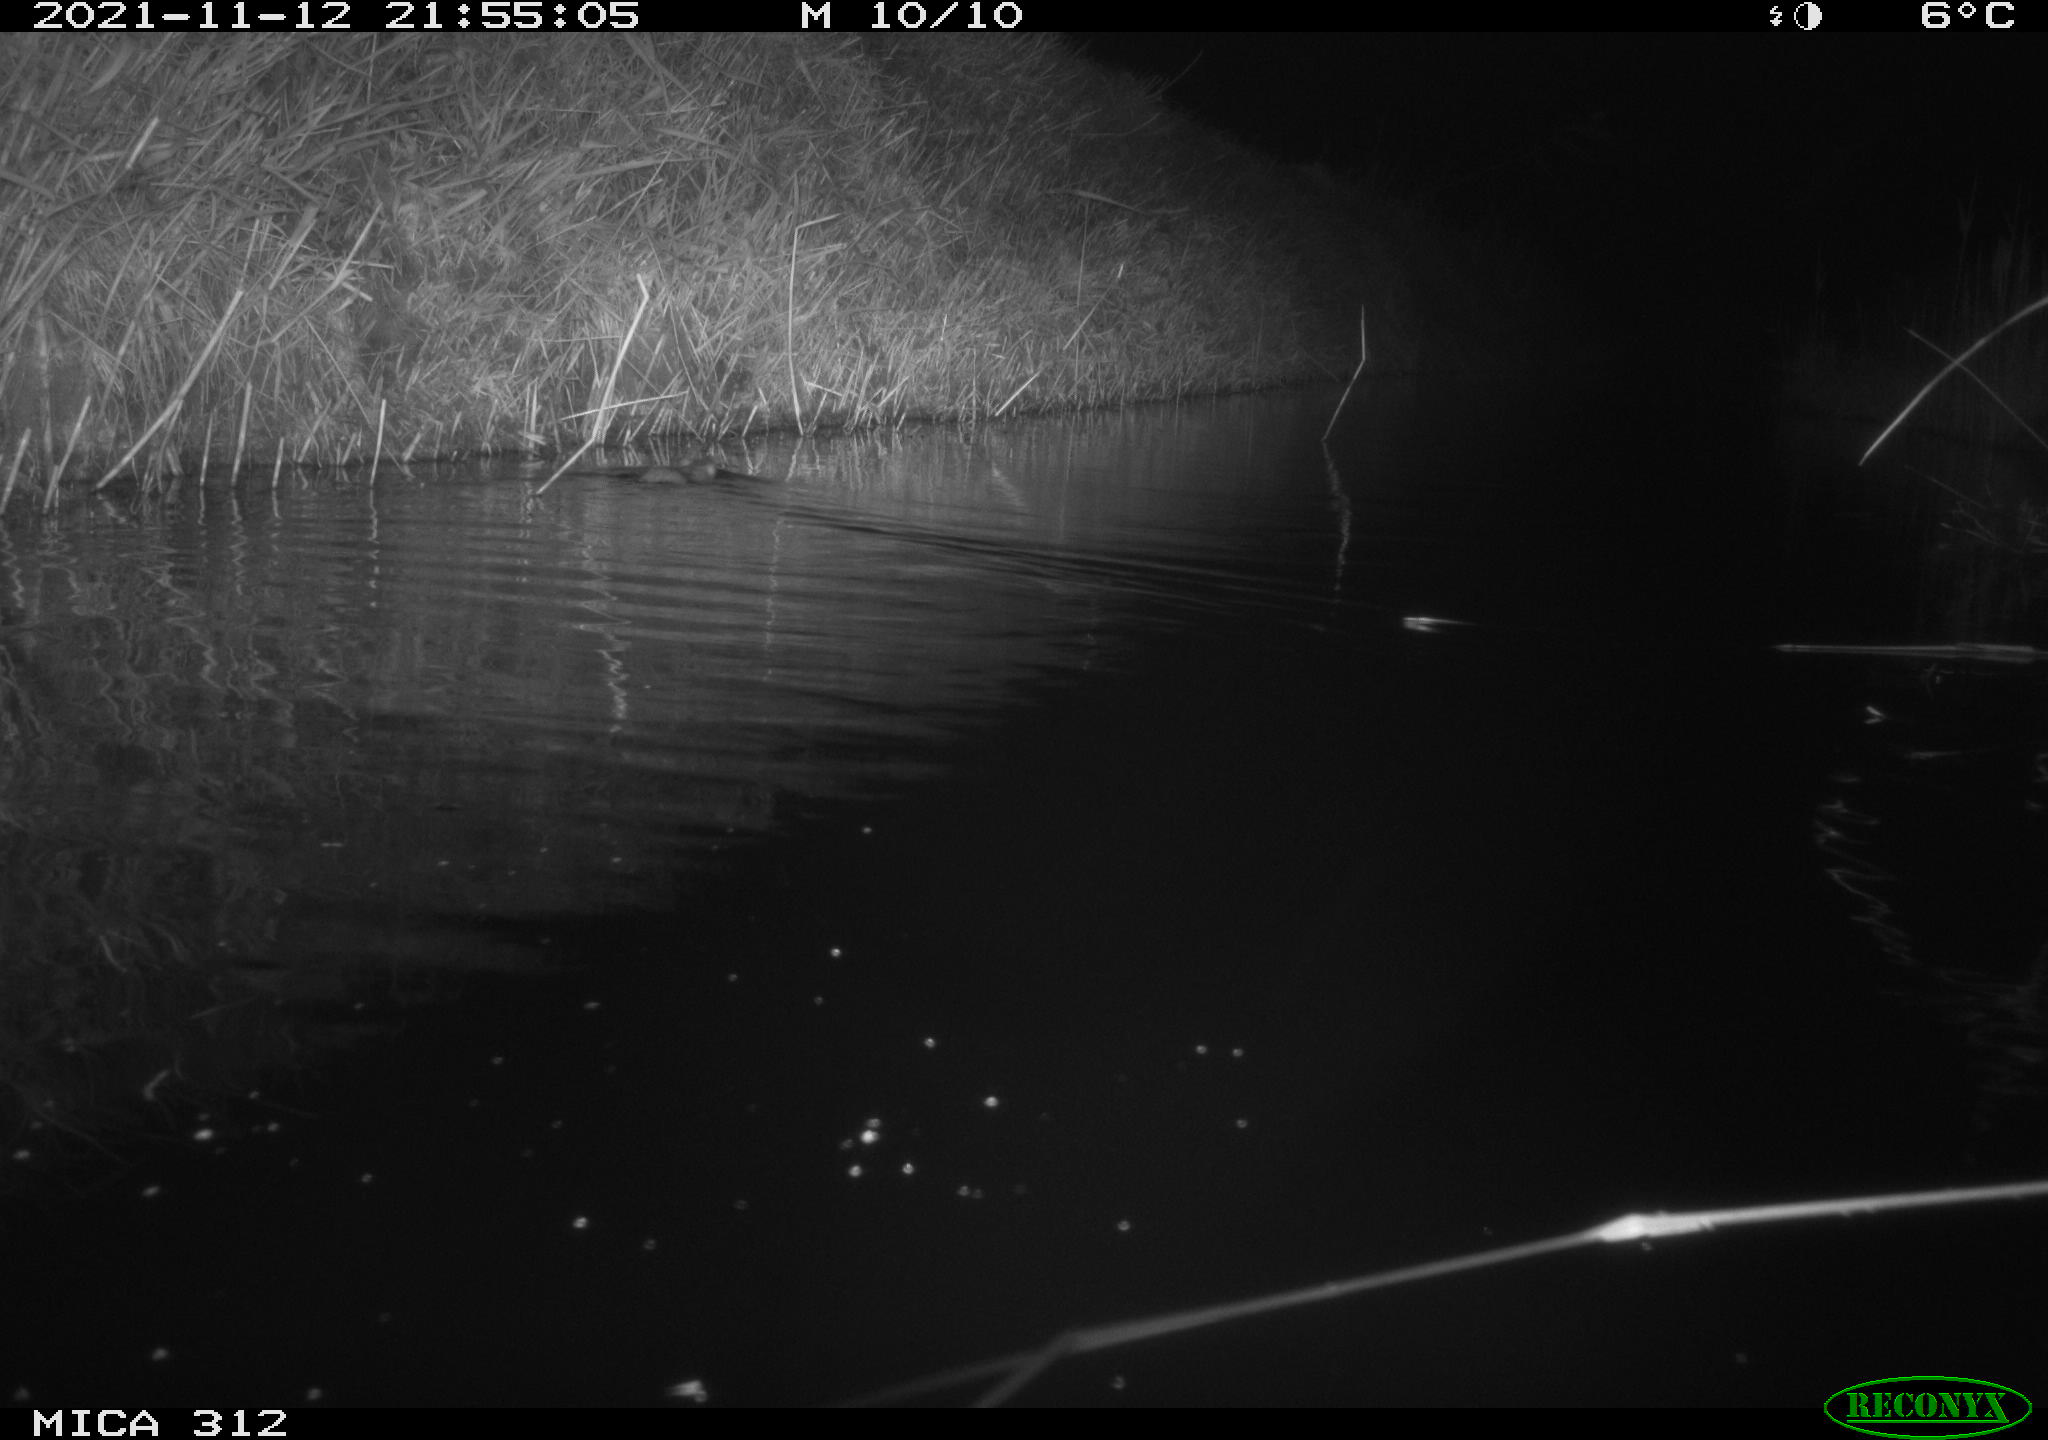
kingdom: Animalia
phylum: Chordata
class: Mammalia
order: Rodentia
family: Muridae
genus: Rattus
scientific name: Rattus norvegicus
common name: Brown rat
